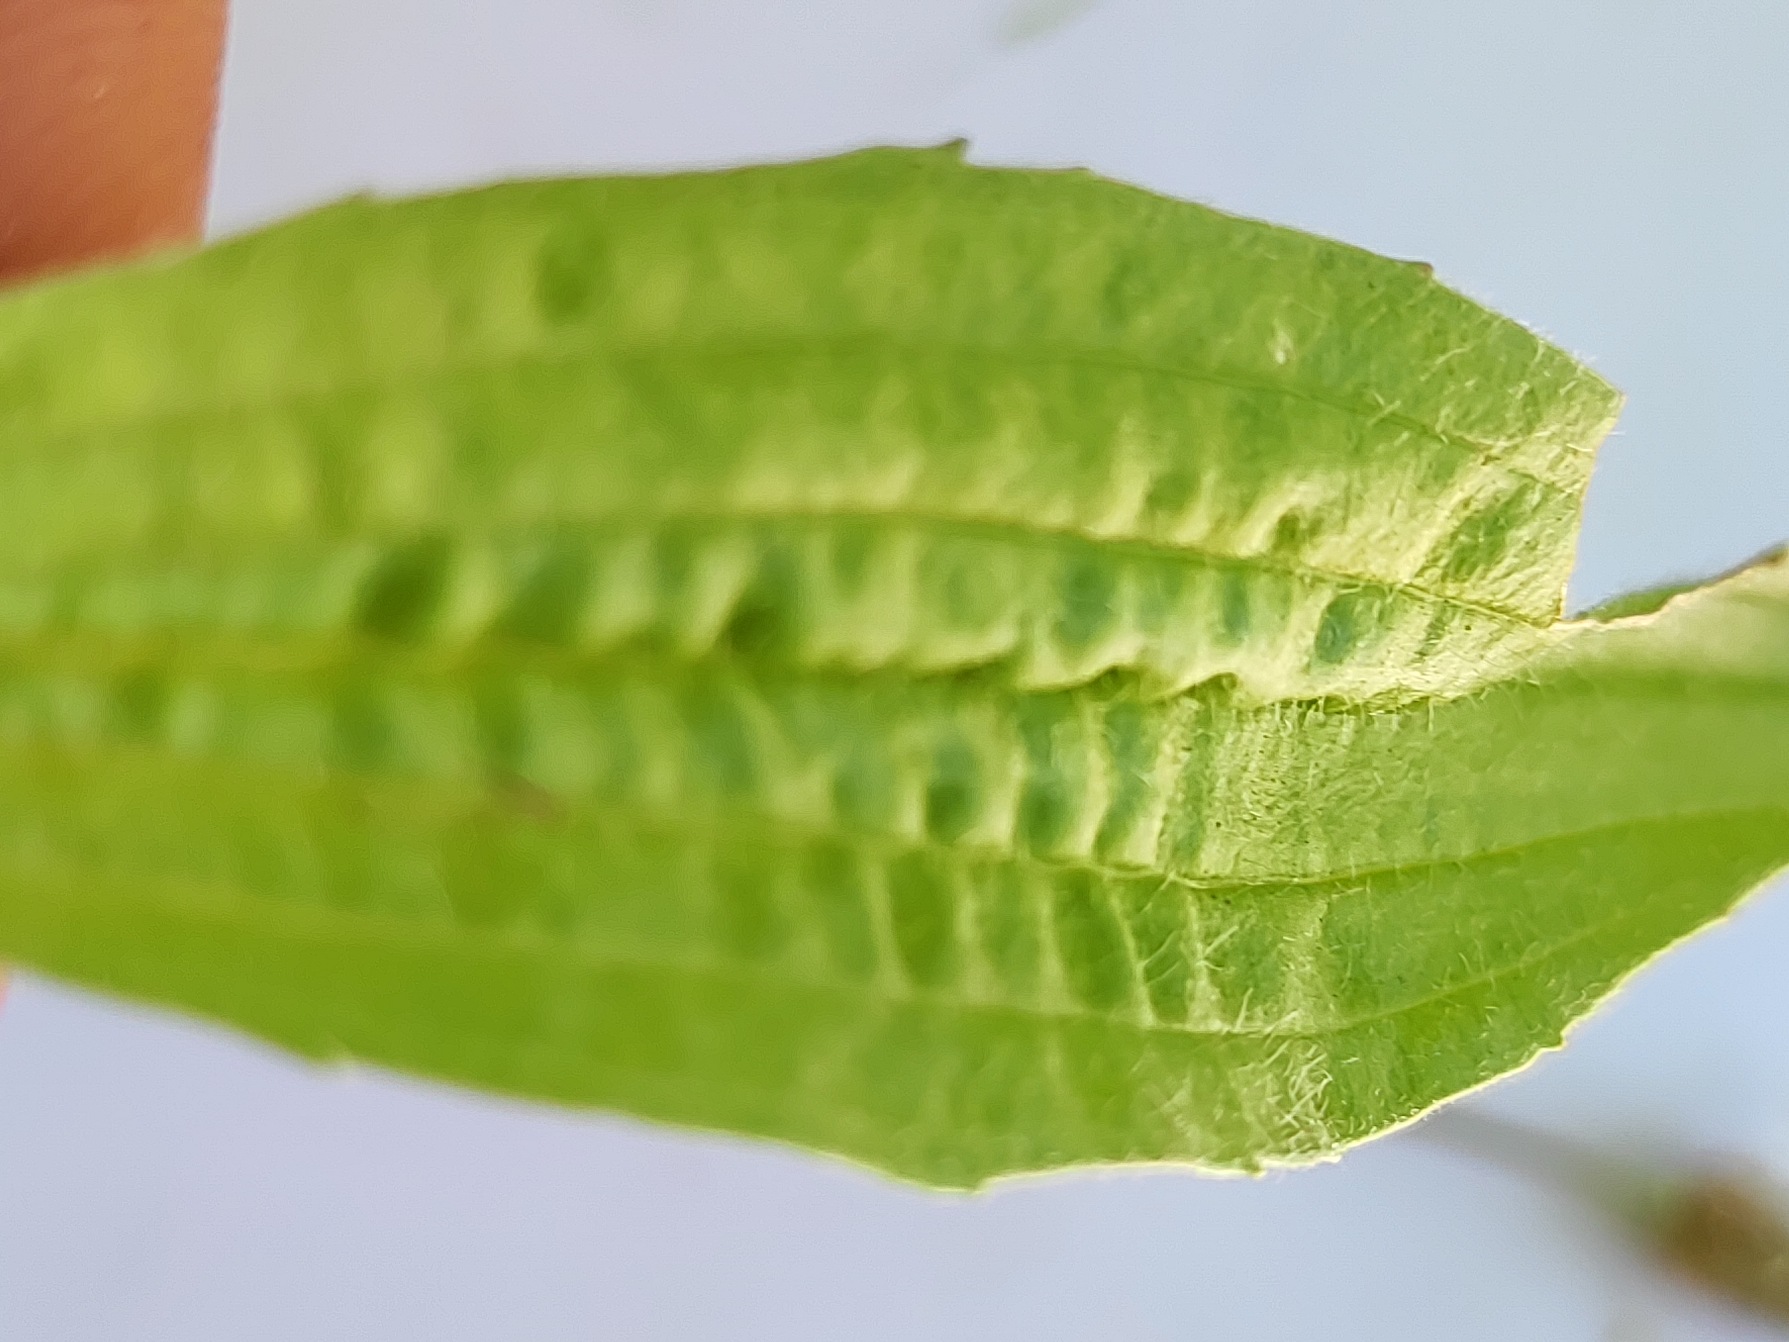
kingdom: Plantae
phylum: Tracheophyta
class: Magnoliopsida
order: Lamiales
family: Plantaginaceae
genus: Plantago
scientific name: Plantago lanceolata
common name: Lancet-vejbred
